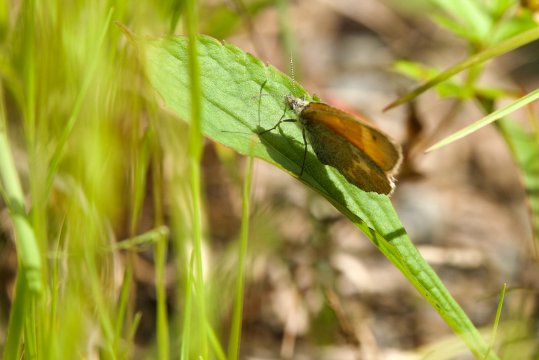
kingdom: Animalia
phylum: Arthropoda
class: Insecta
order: Lepidoptera
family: Nymphalidae
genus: Coenonympha
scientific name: Coenonympha tullia
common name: Large Heath
